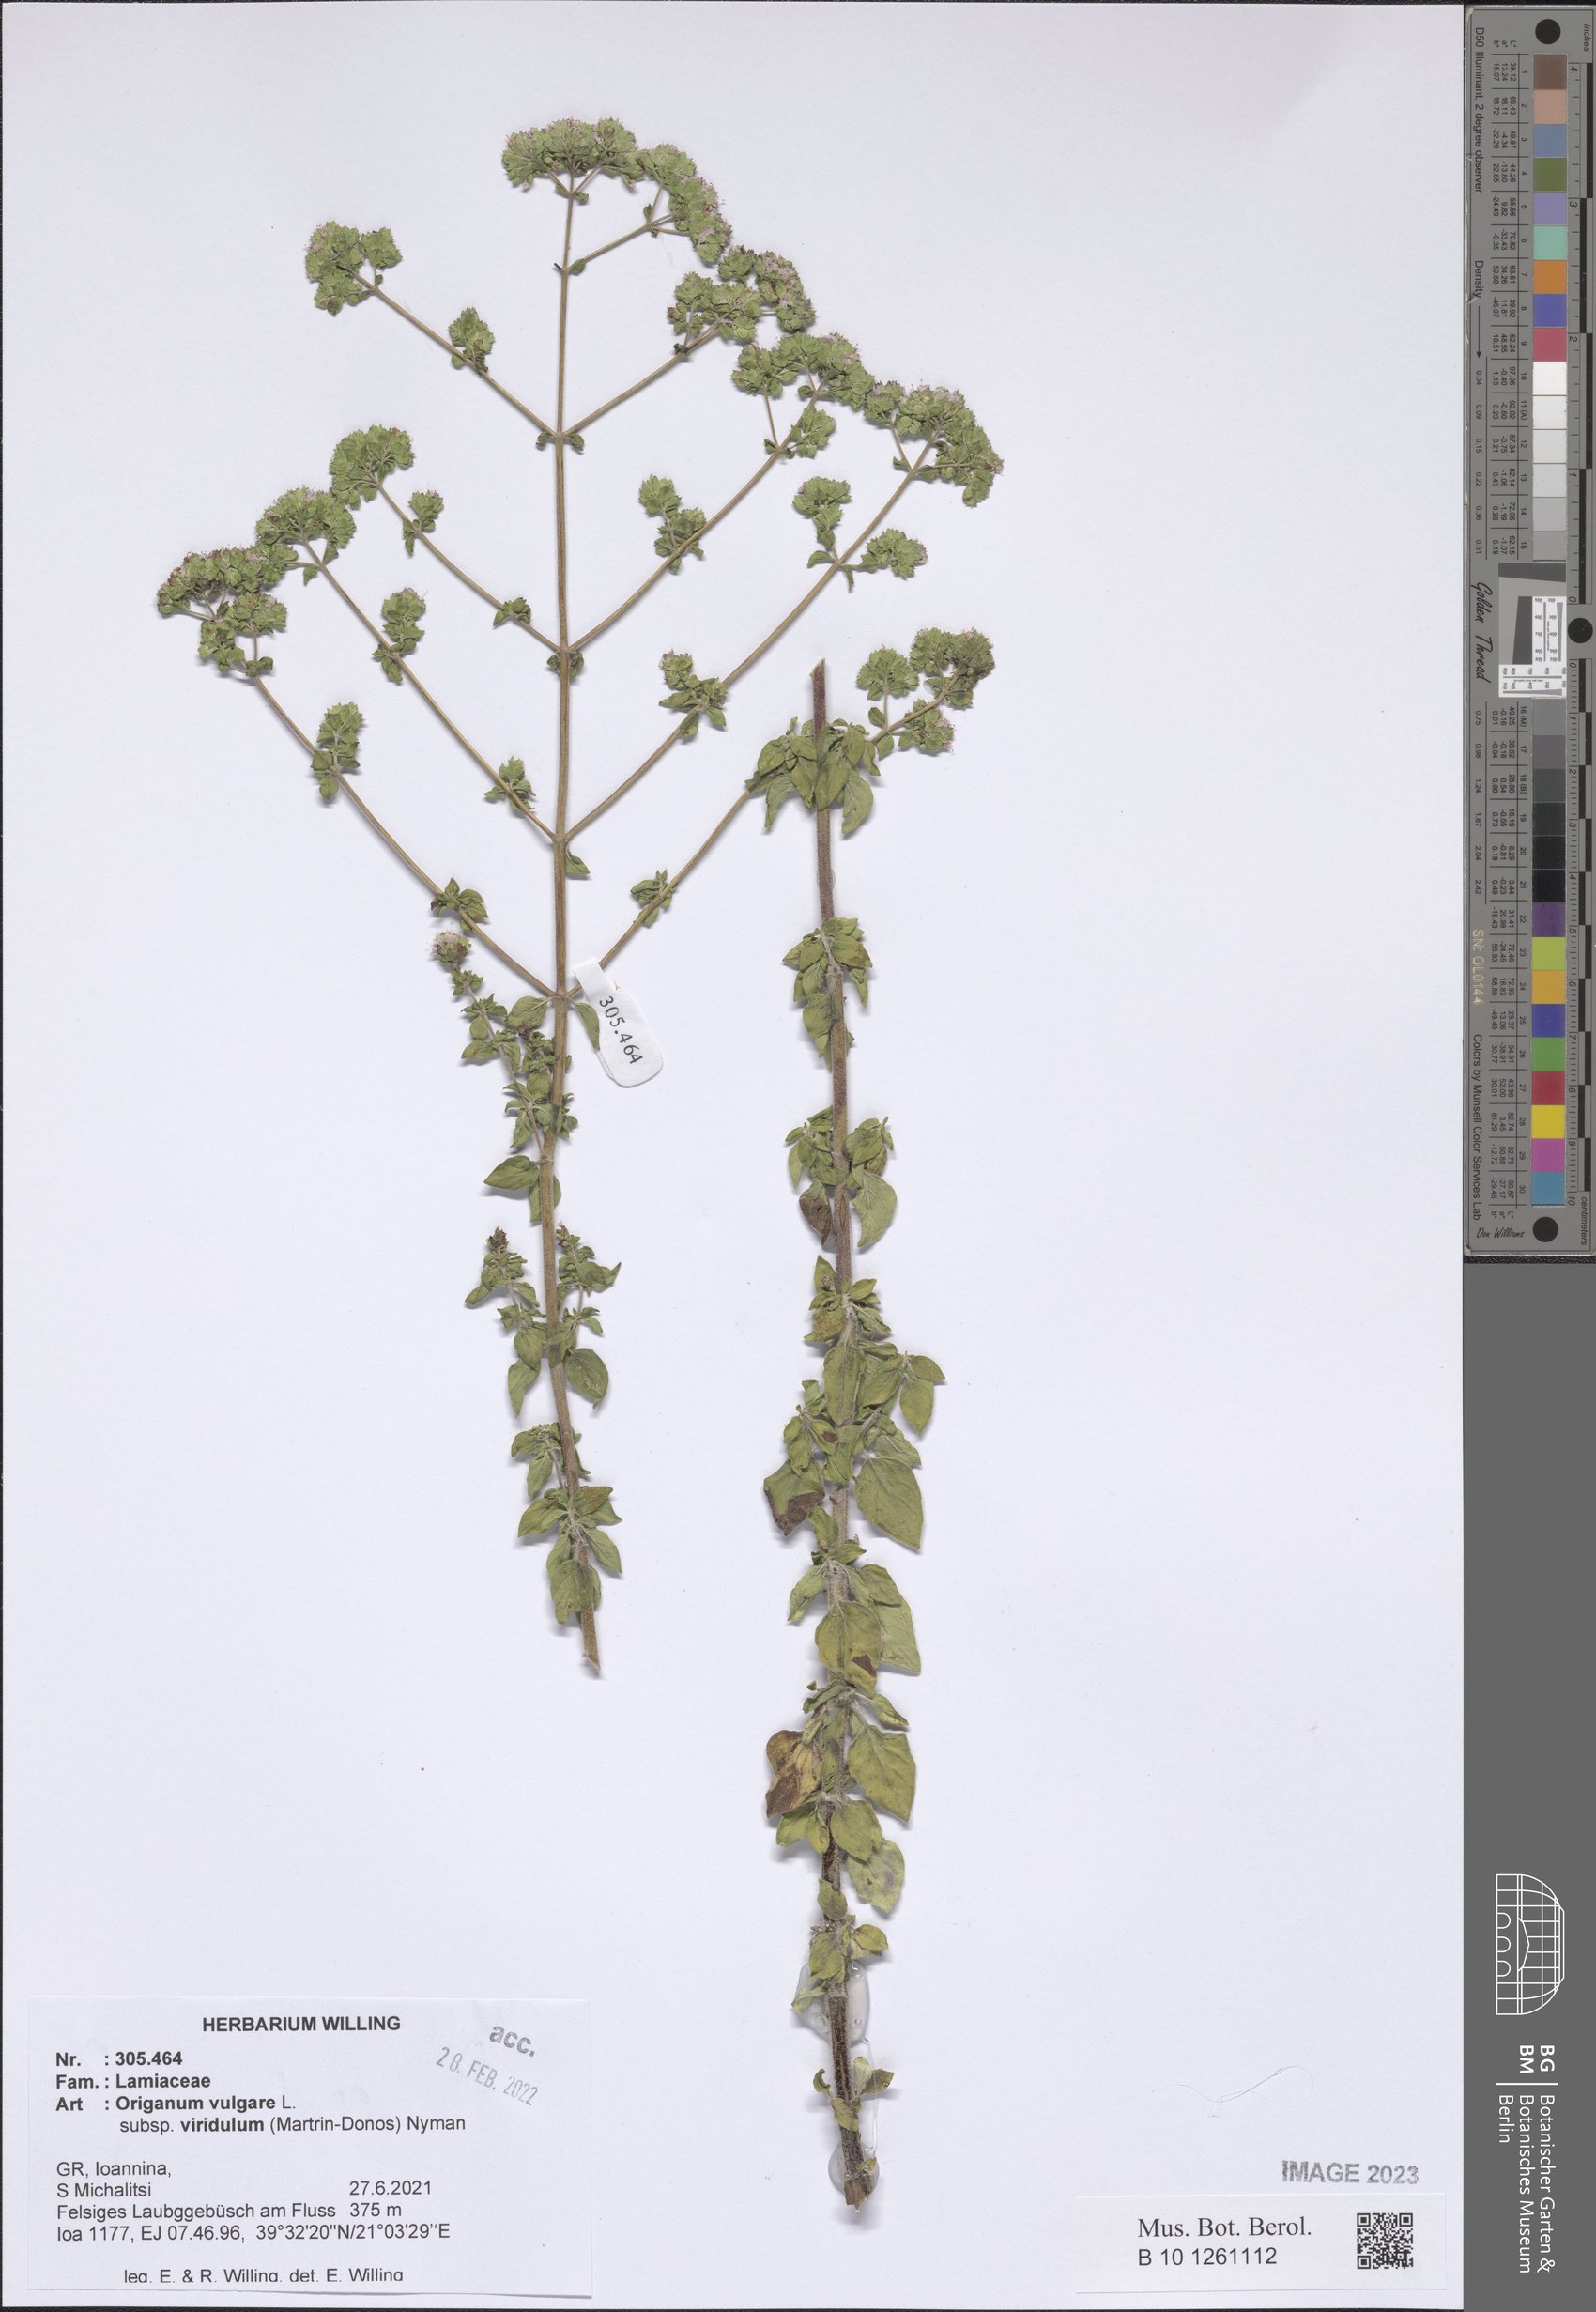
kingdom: Plantae
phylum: Tracheophyta
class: Magnoliopsida
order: Lamiales
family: Lamiaceae
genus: Origanum
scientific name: Origanum vulgare
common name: Wild marjoram
